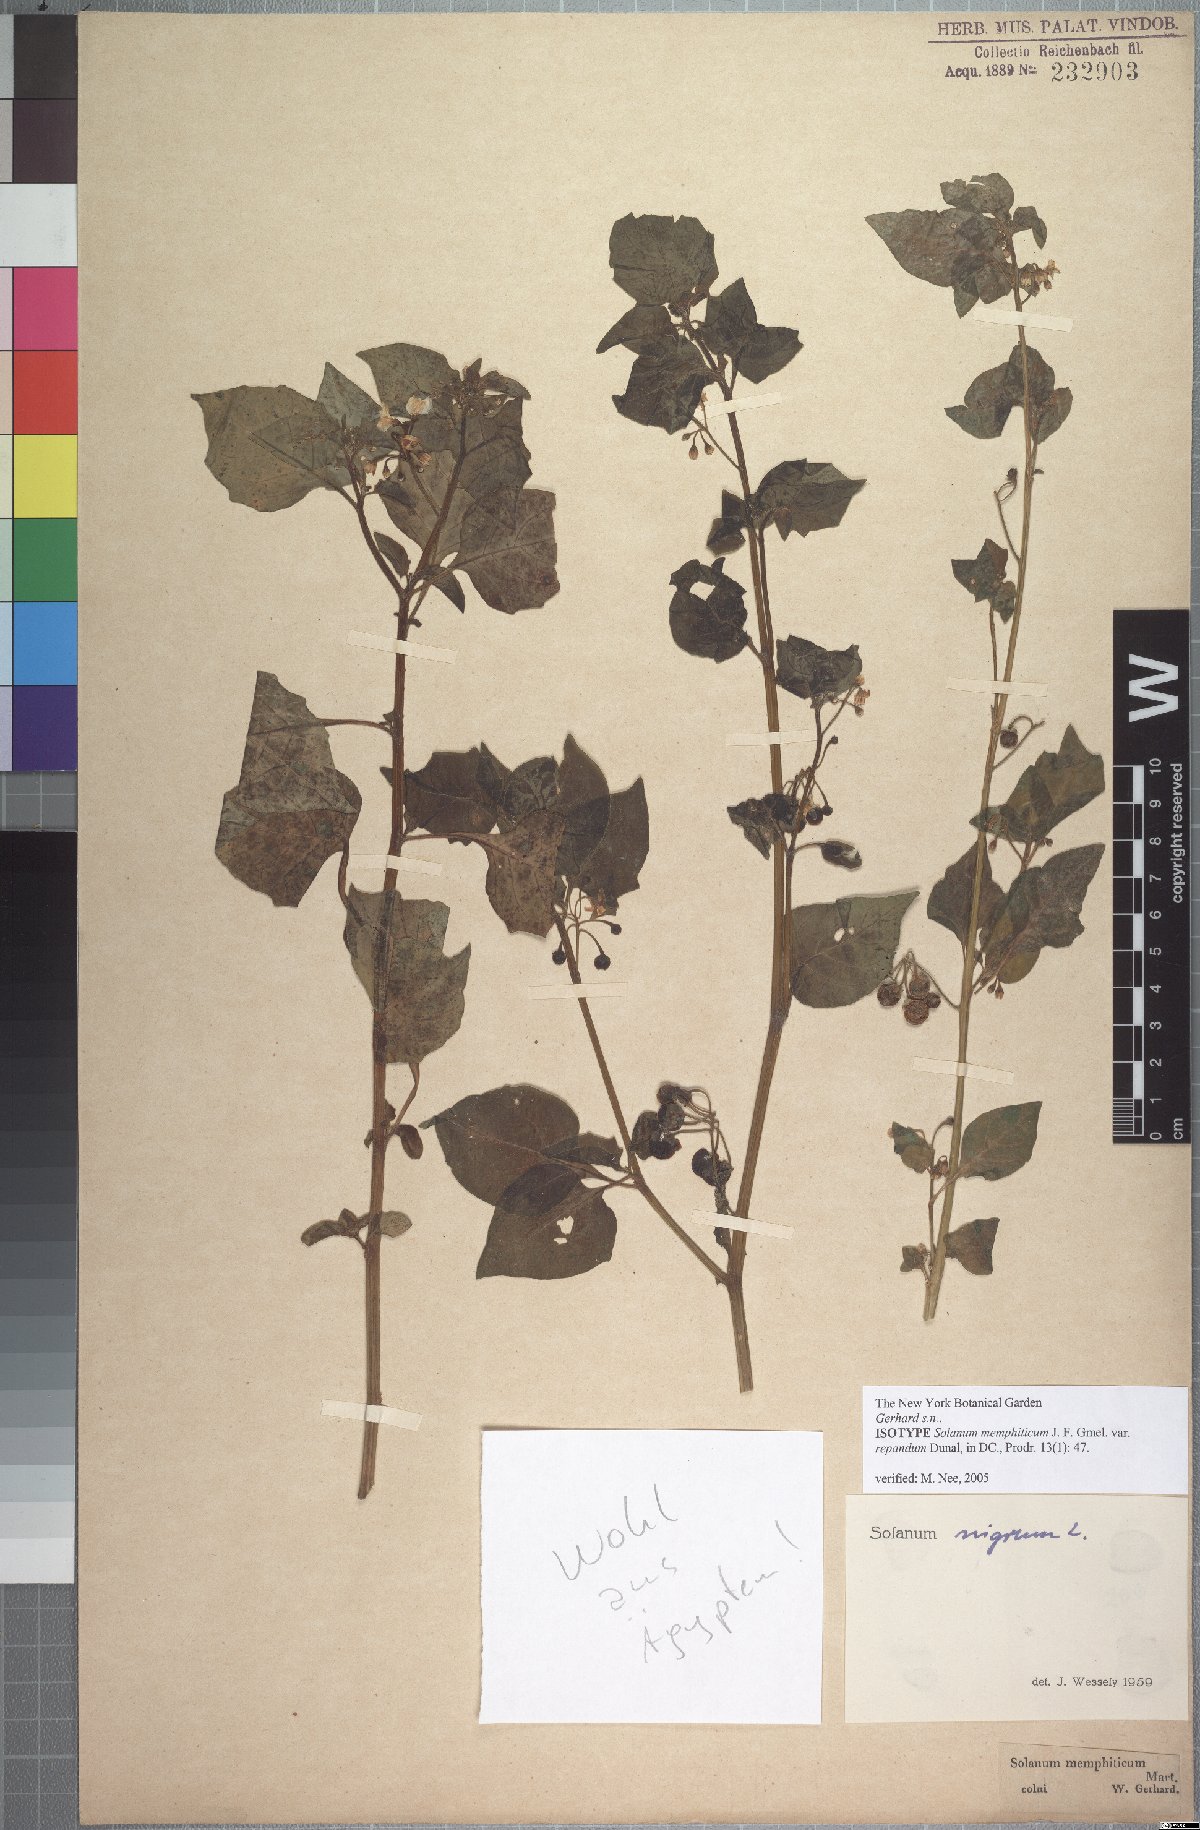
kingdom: Plantae
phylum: Tracheophyta
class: Magnoliopsida
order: Solanales
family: Solanaceae
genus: Solanum
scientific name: Solanum nigrum
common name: Black nightshade
